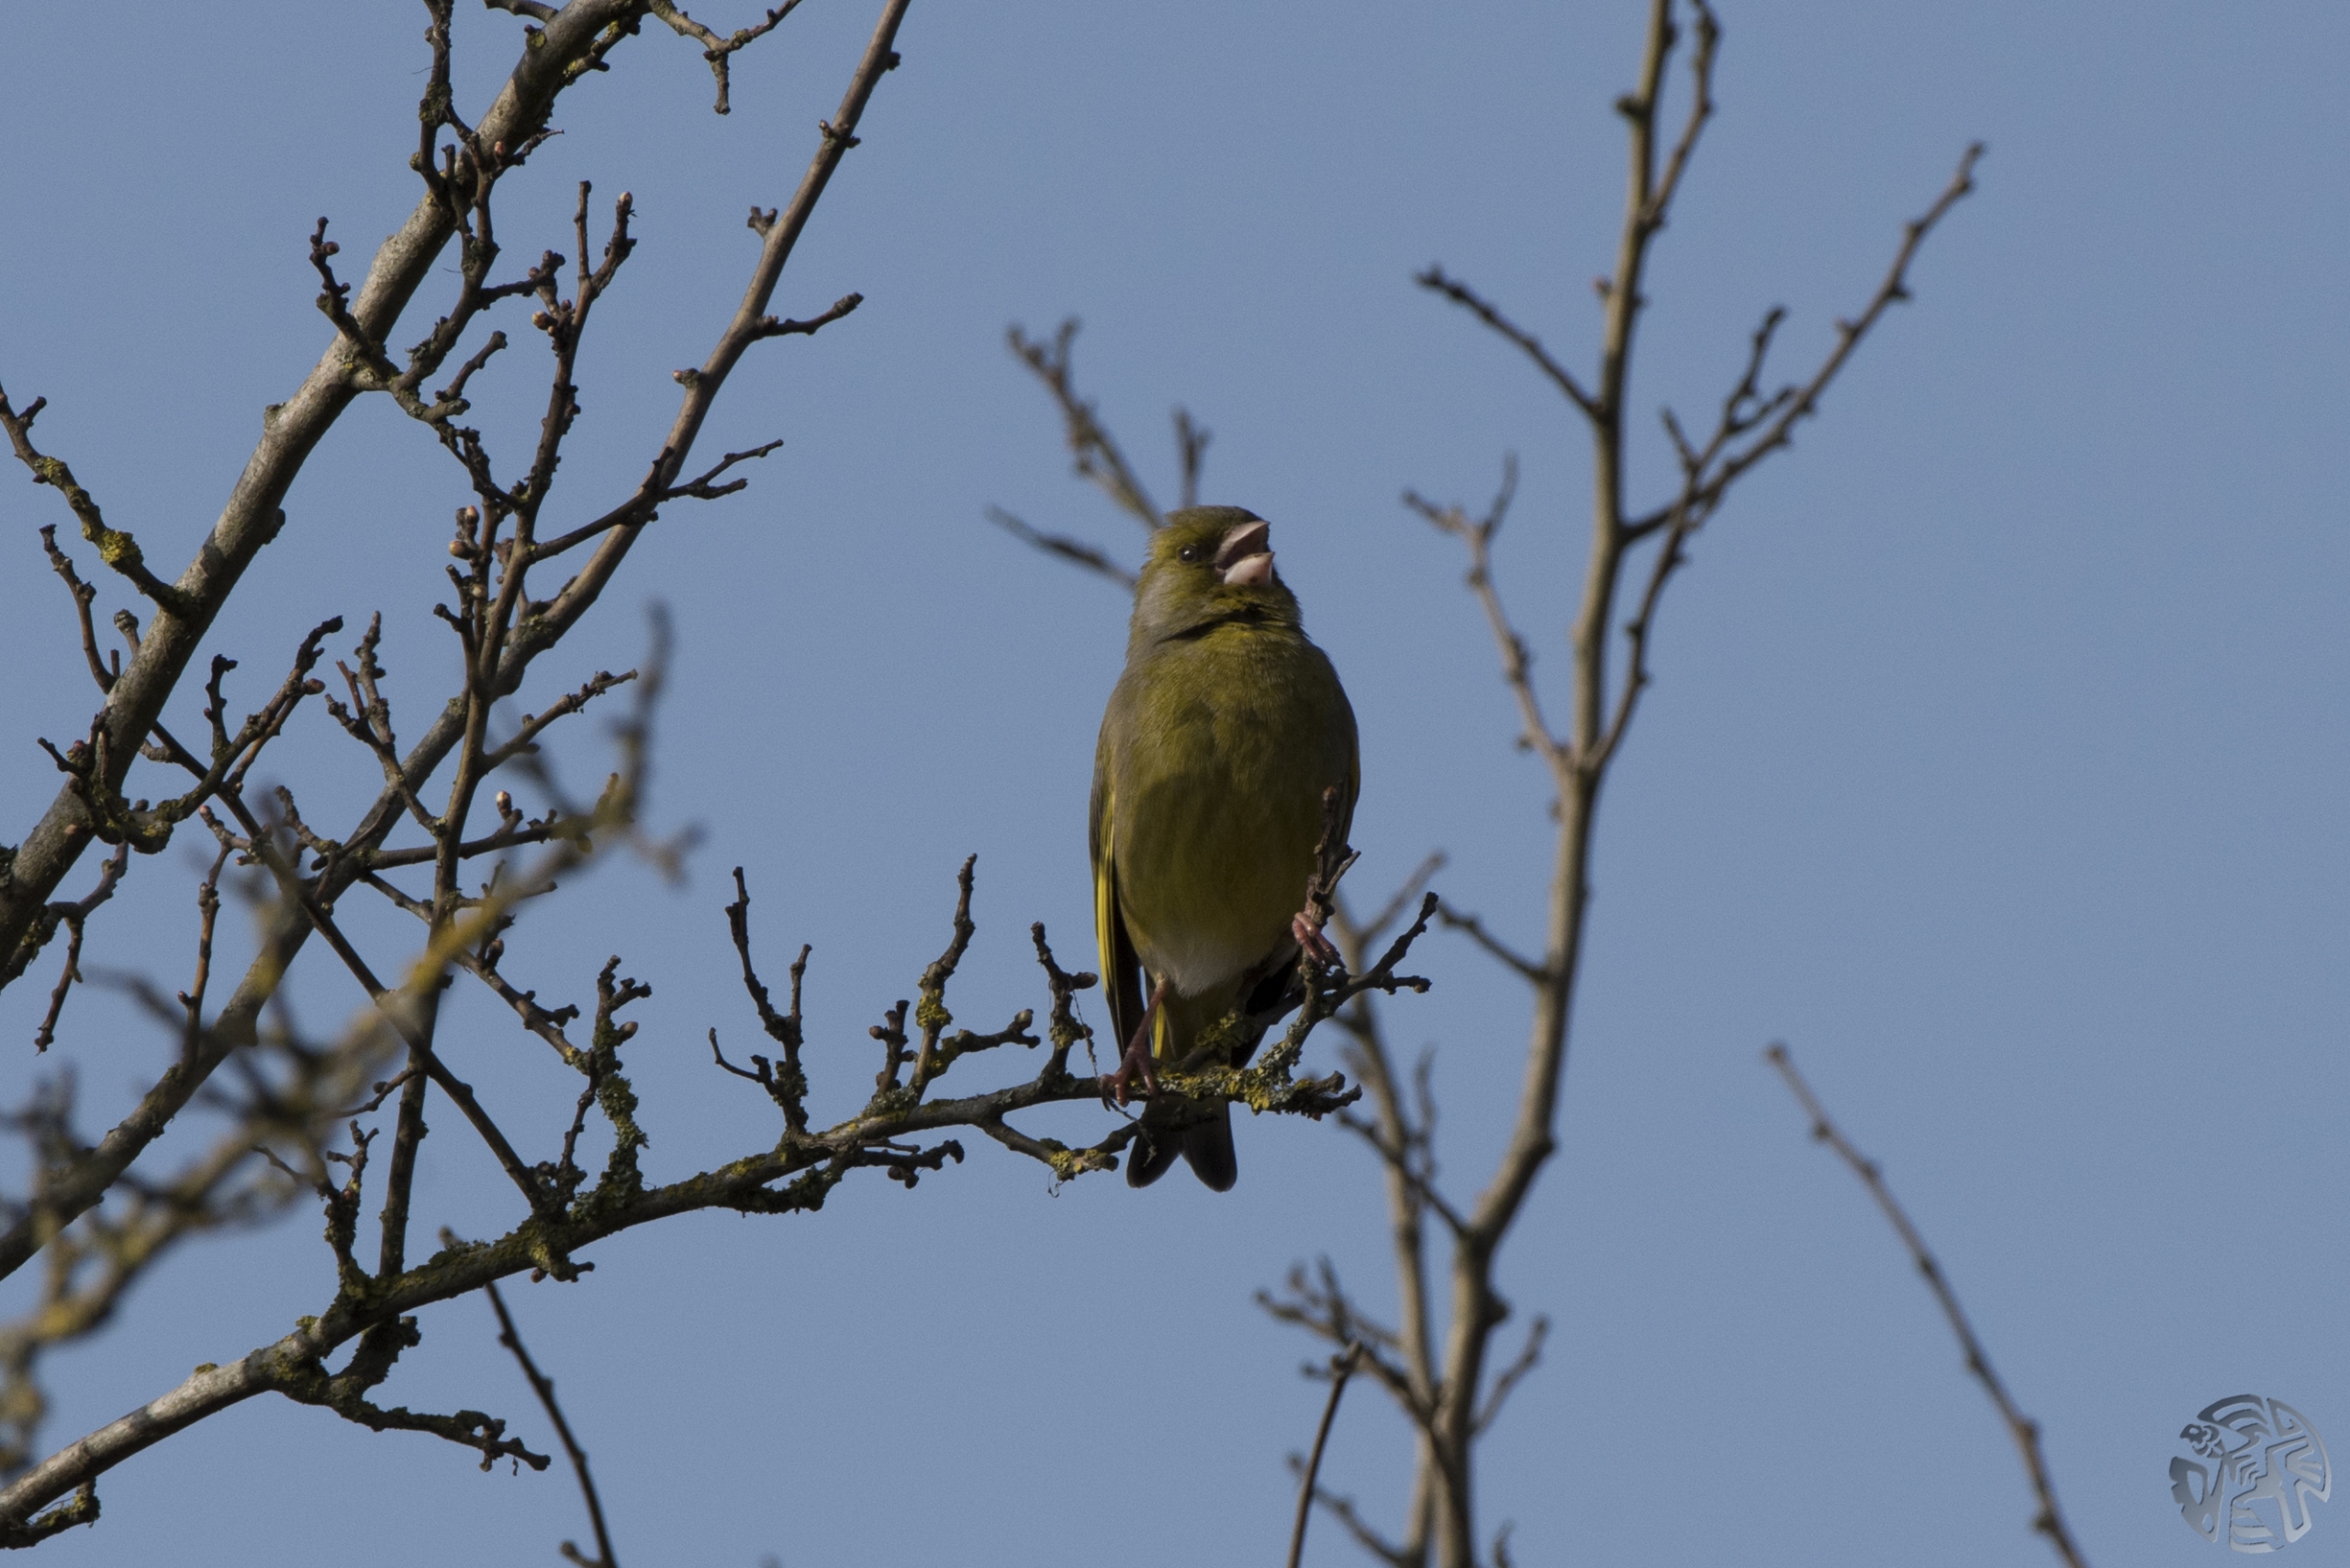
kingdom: Plantae
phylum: Tracheophyta
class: Liliopsida
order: Poales
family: Poaceae
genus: Chloris
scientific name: Chloris chloris
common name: Grønirisk
